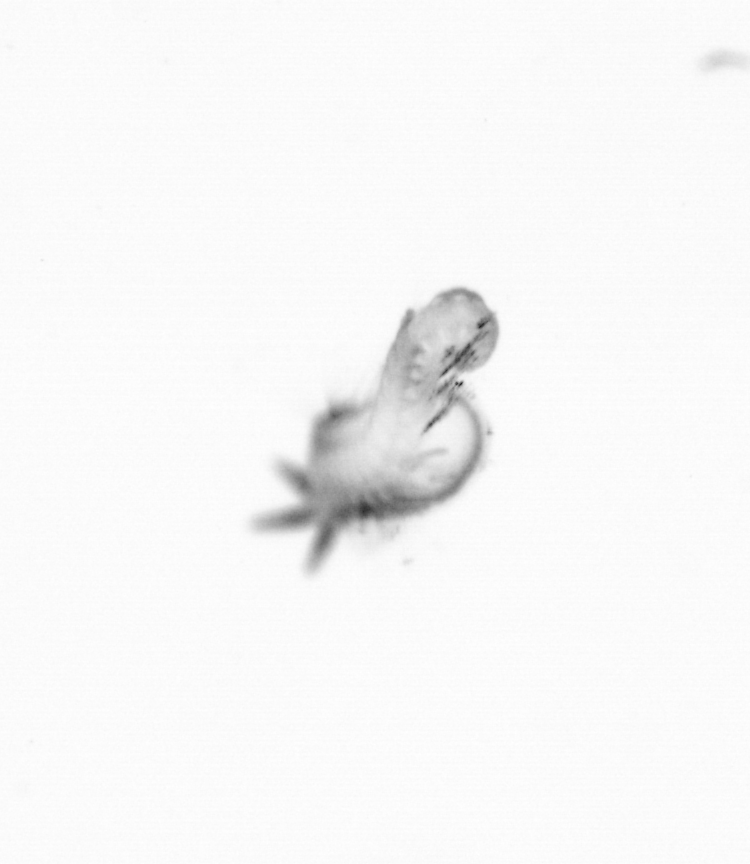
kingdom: Animalia
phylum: Annelida
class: Polychaeta
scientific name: Polychaeta
